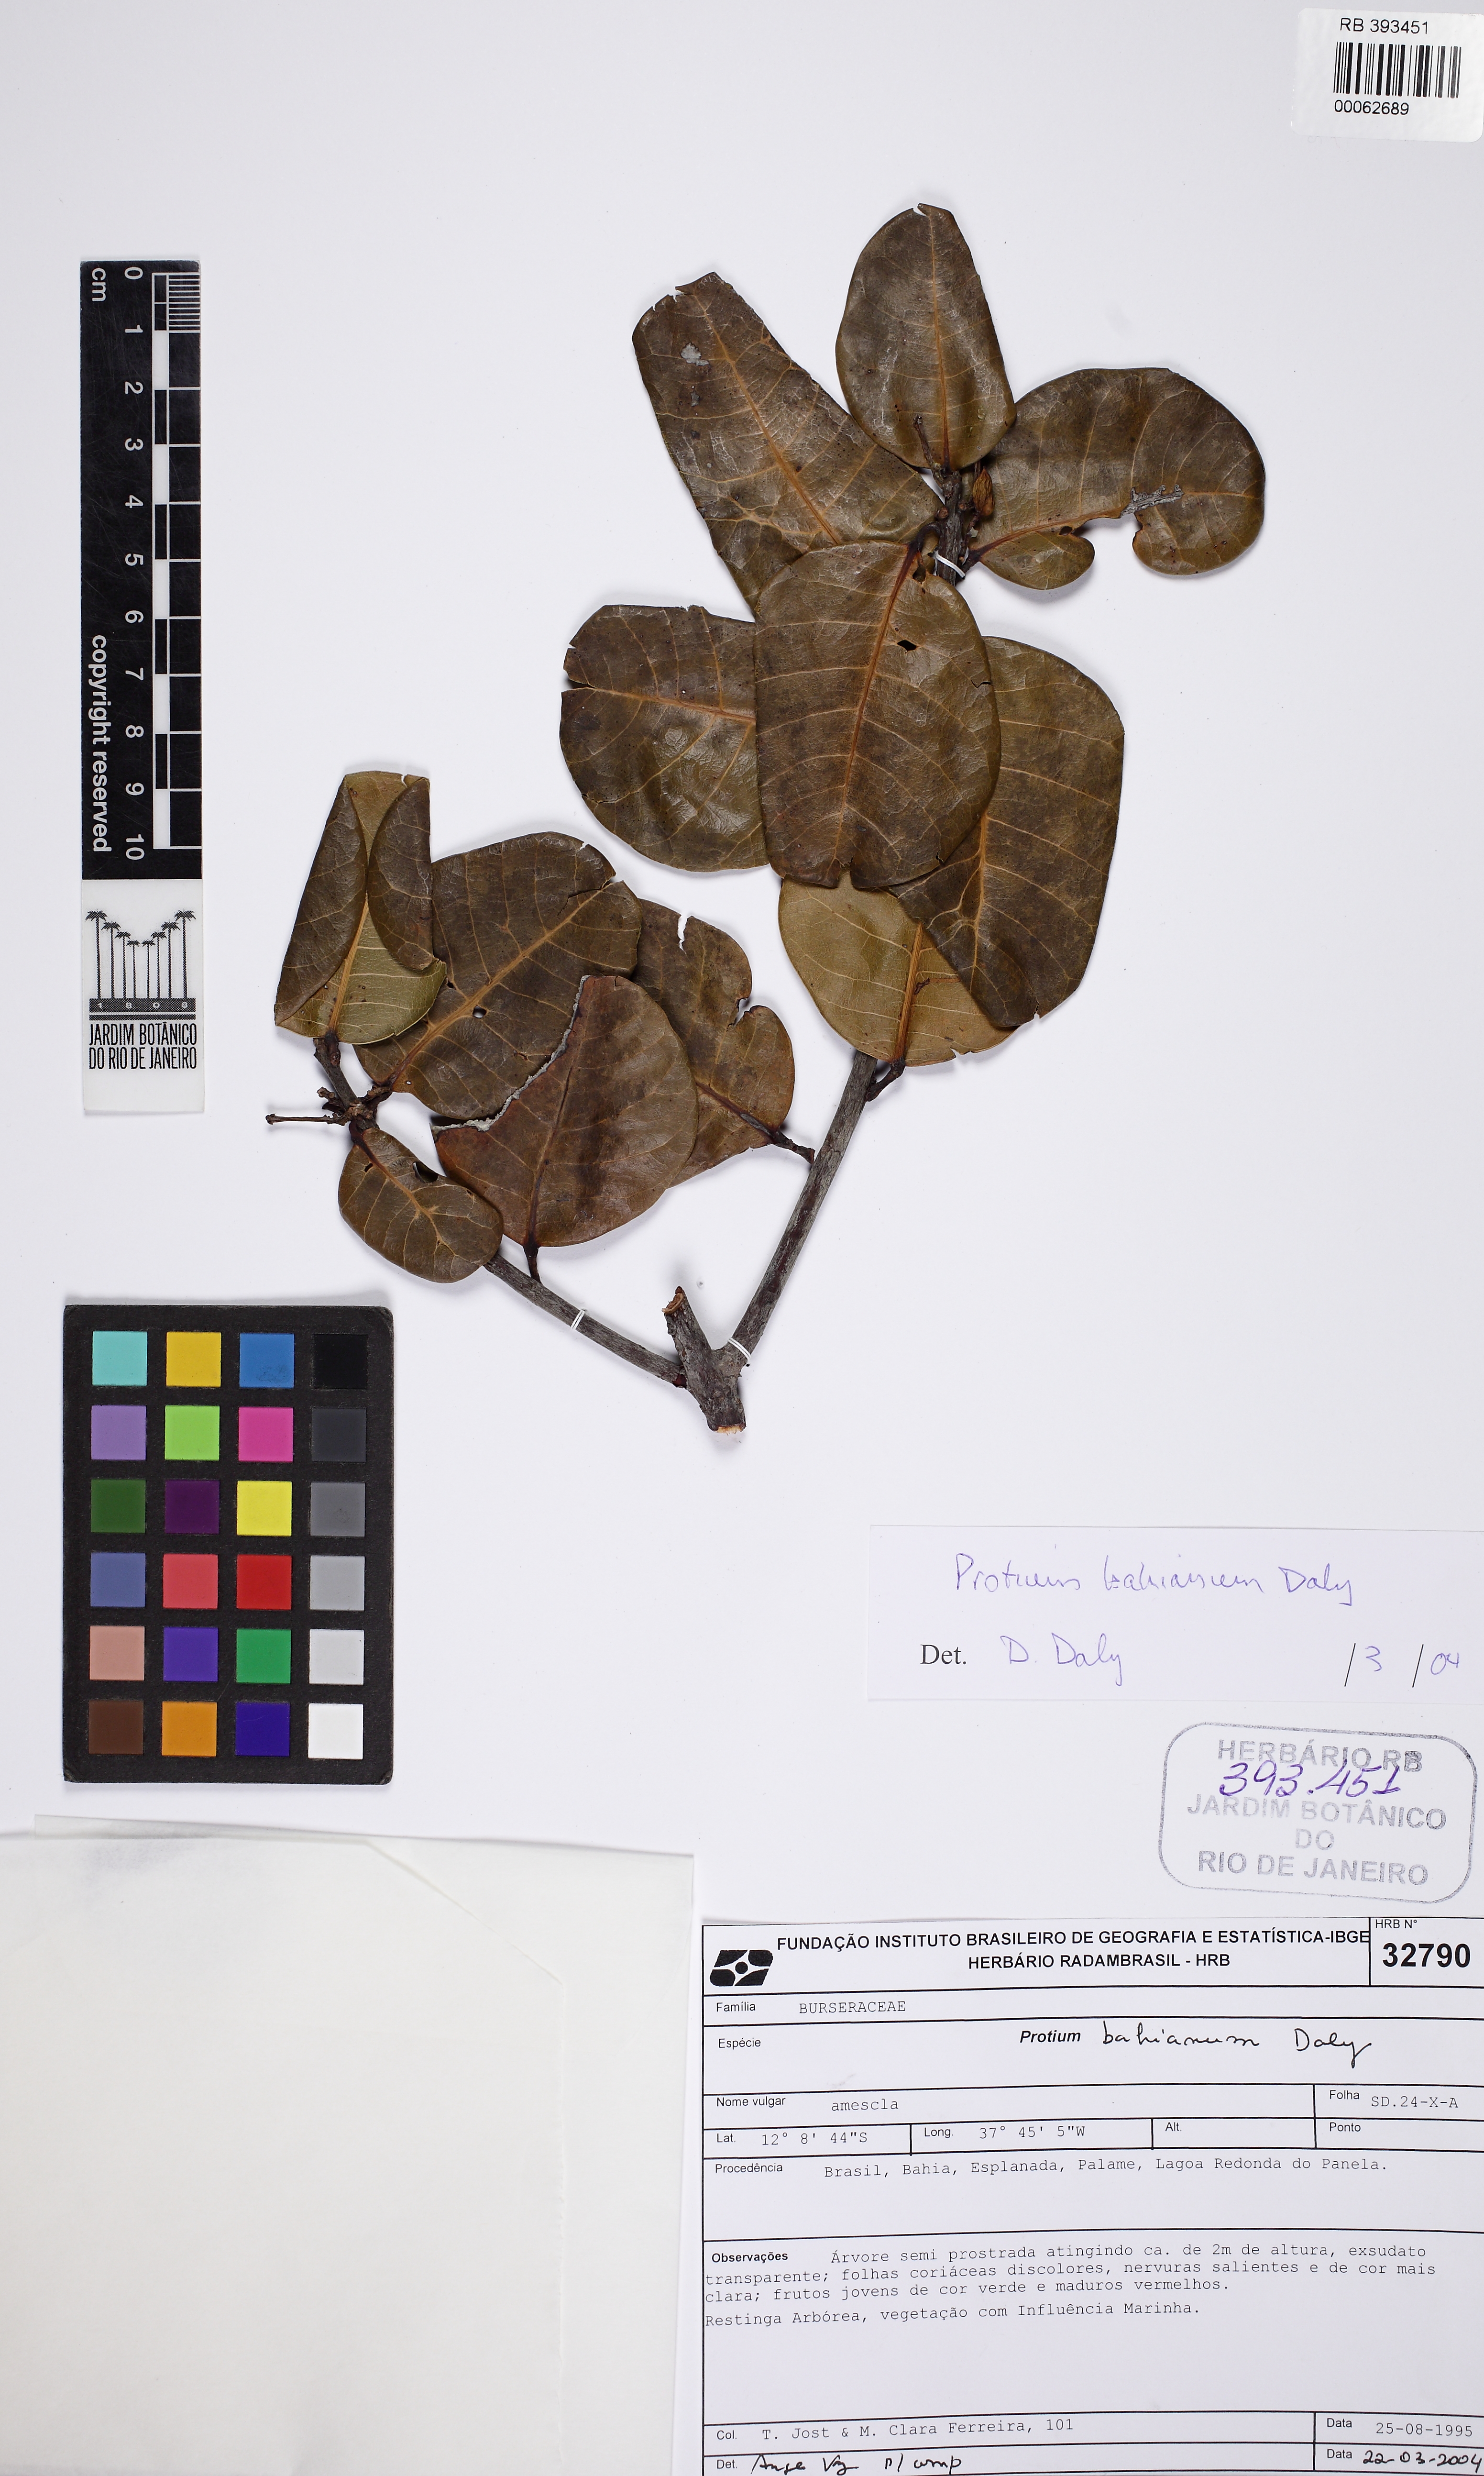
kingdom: Plantae
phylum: Tracheophyta
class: Magnoliopsida
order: Sapindales
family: Burseraceae
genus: Protium
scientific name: Protium bahianum
